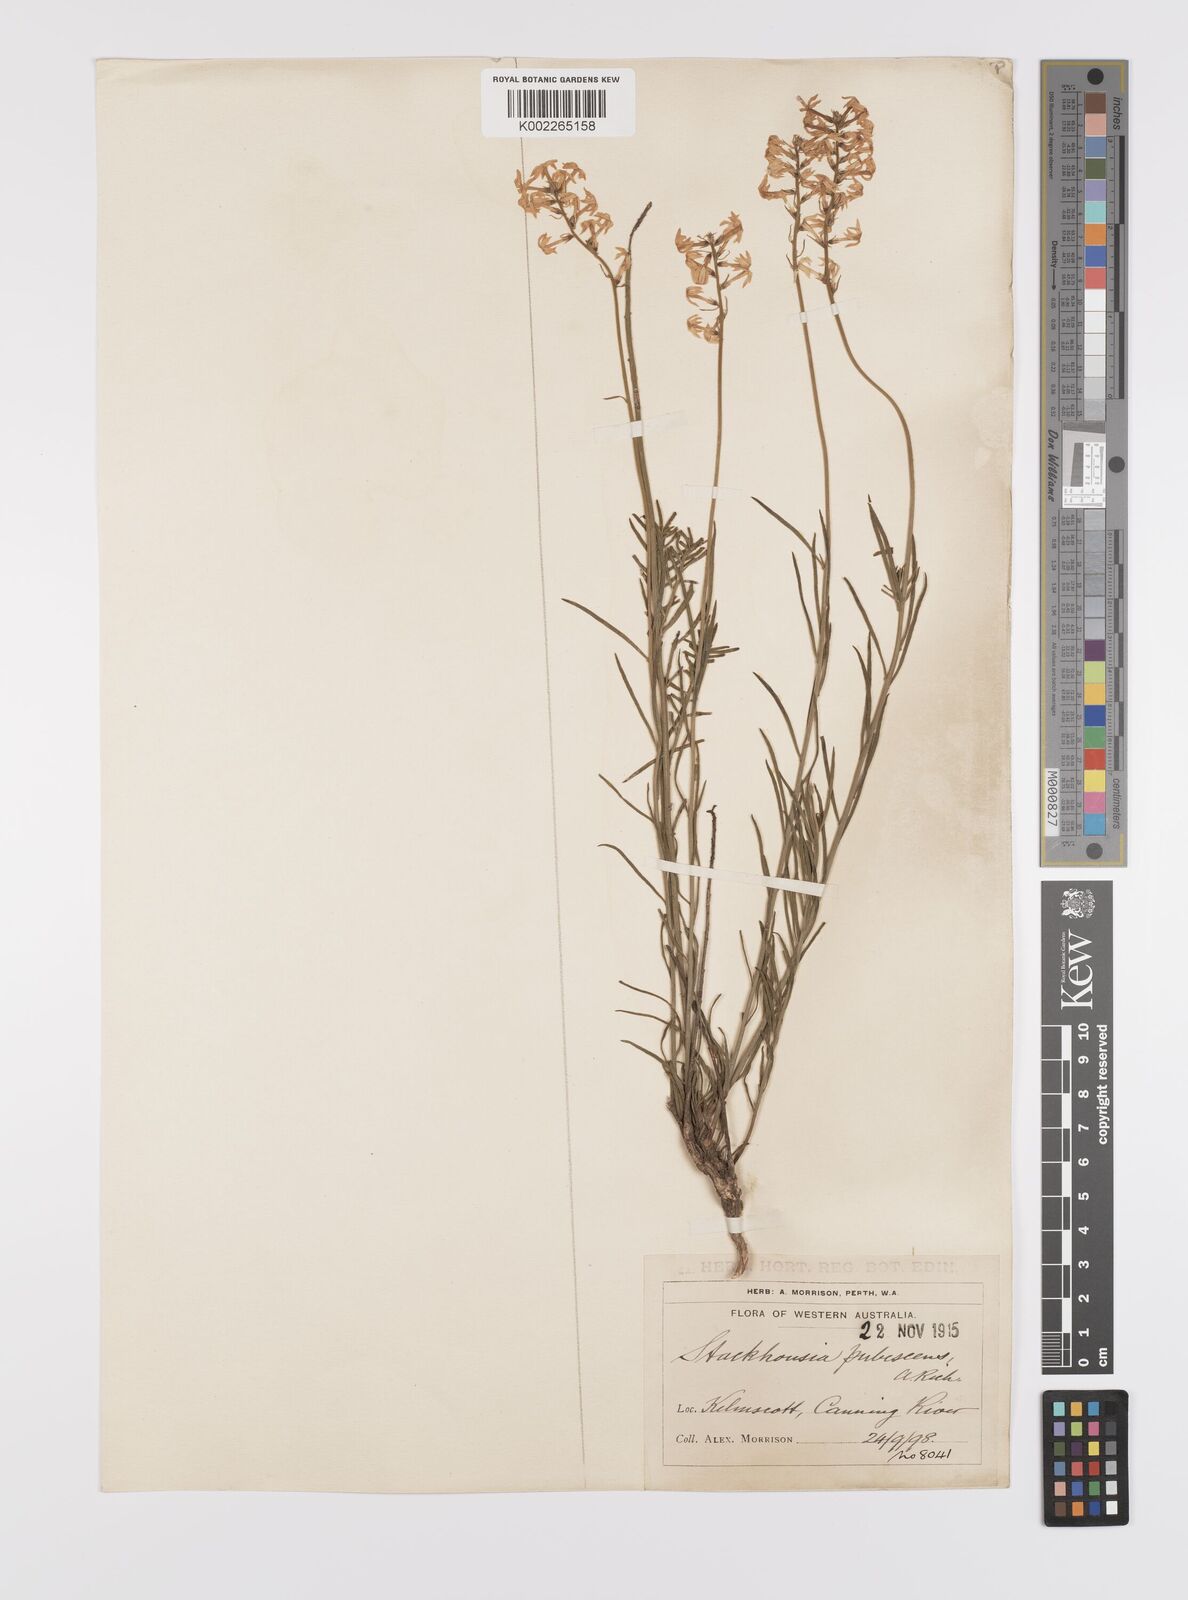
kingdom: Plantae
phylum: Tracheophyta
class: Magnoliopsida
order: Celastrales
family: Celastraceae
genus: Stackhousia
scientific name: Stackhousia monogyna
